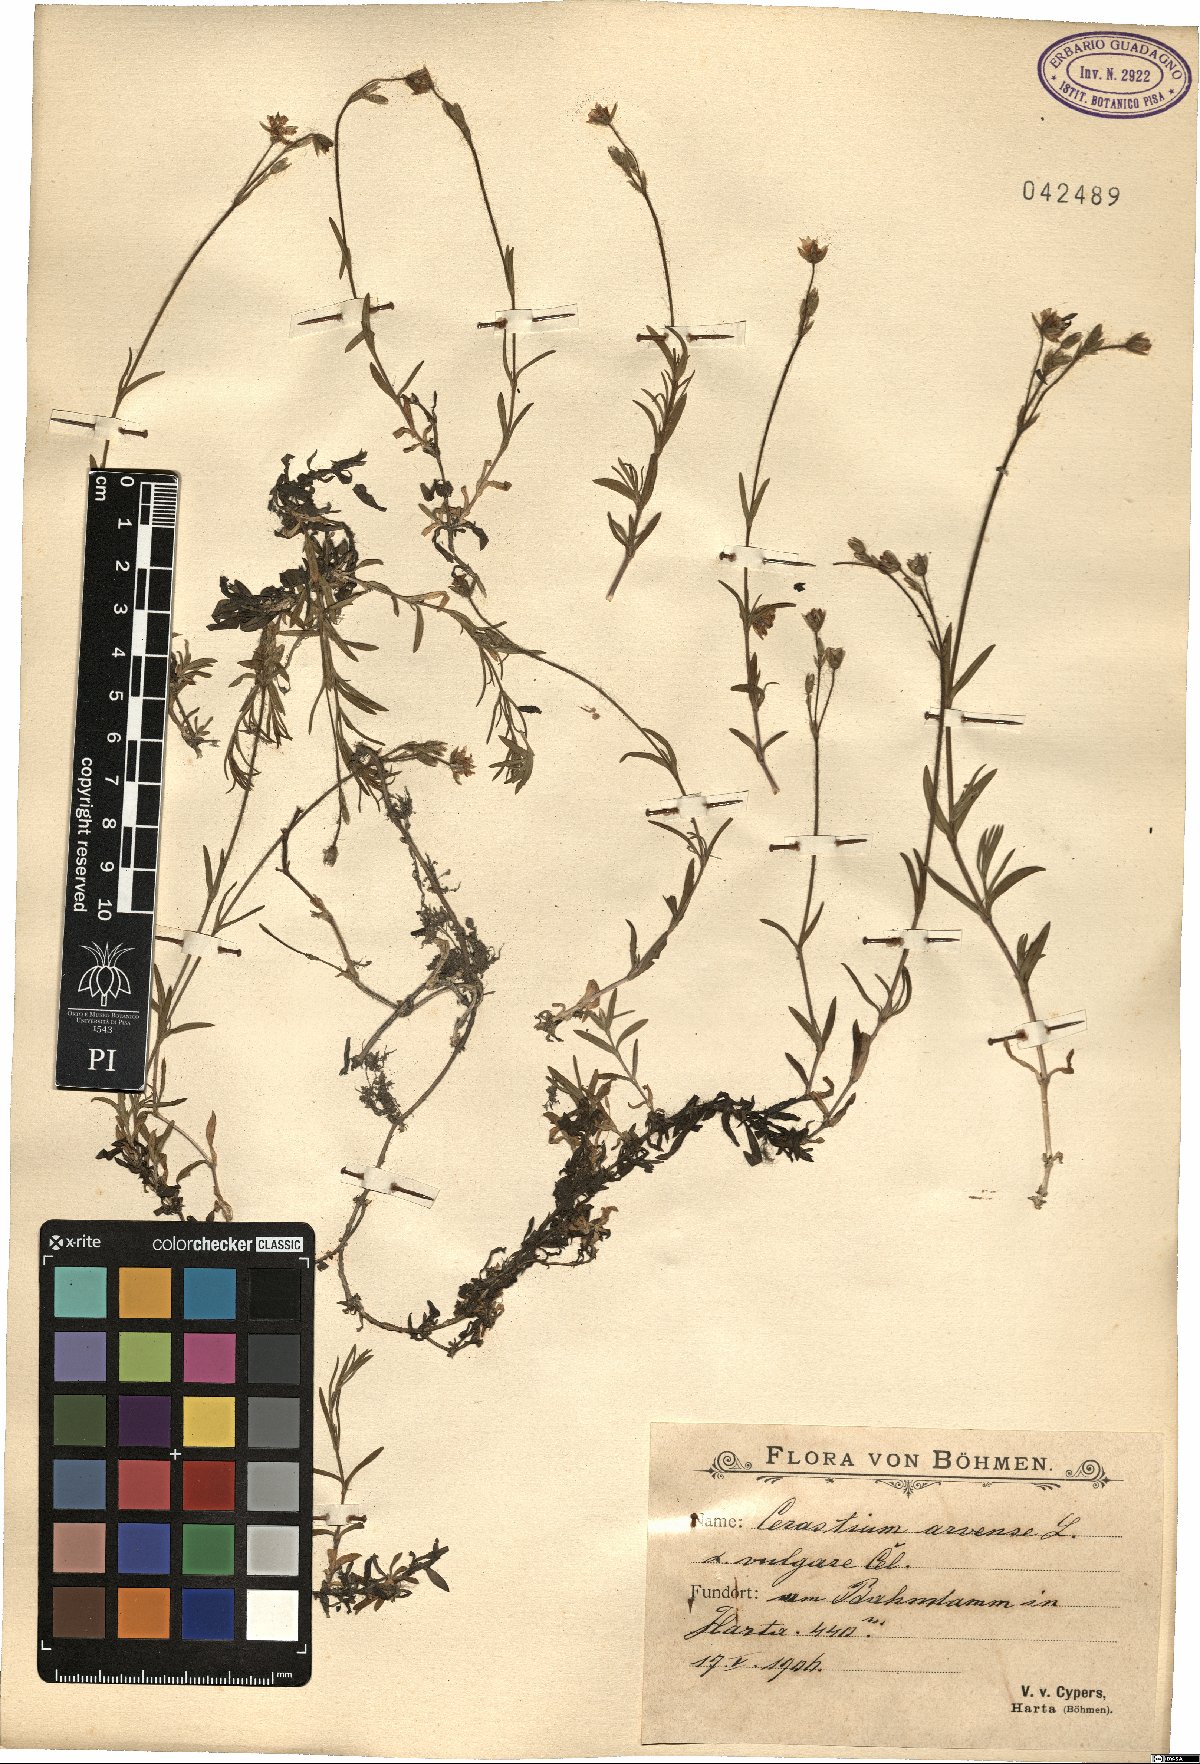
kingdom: Plantae
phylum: Tracheophyta
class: Magnoliopsida
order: Caryophyllales
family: Caryophyllaceae
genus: Cerastium
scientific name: Cerastium arvense
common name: Field mouse-ear
